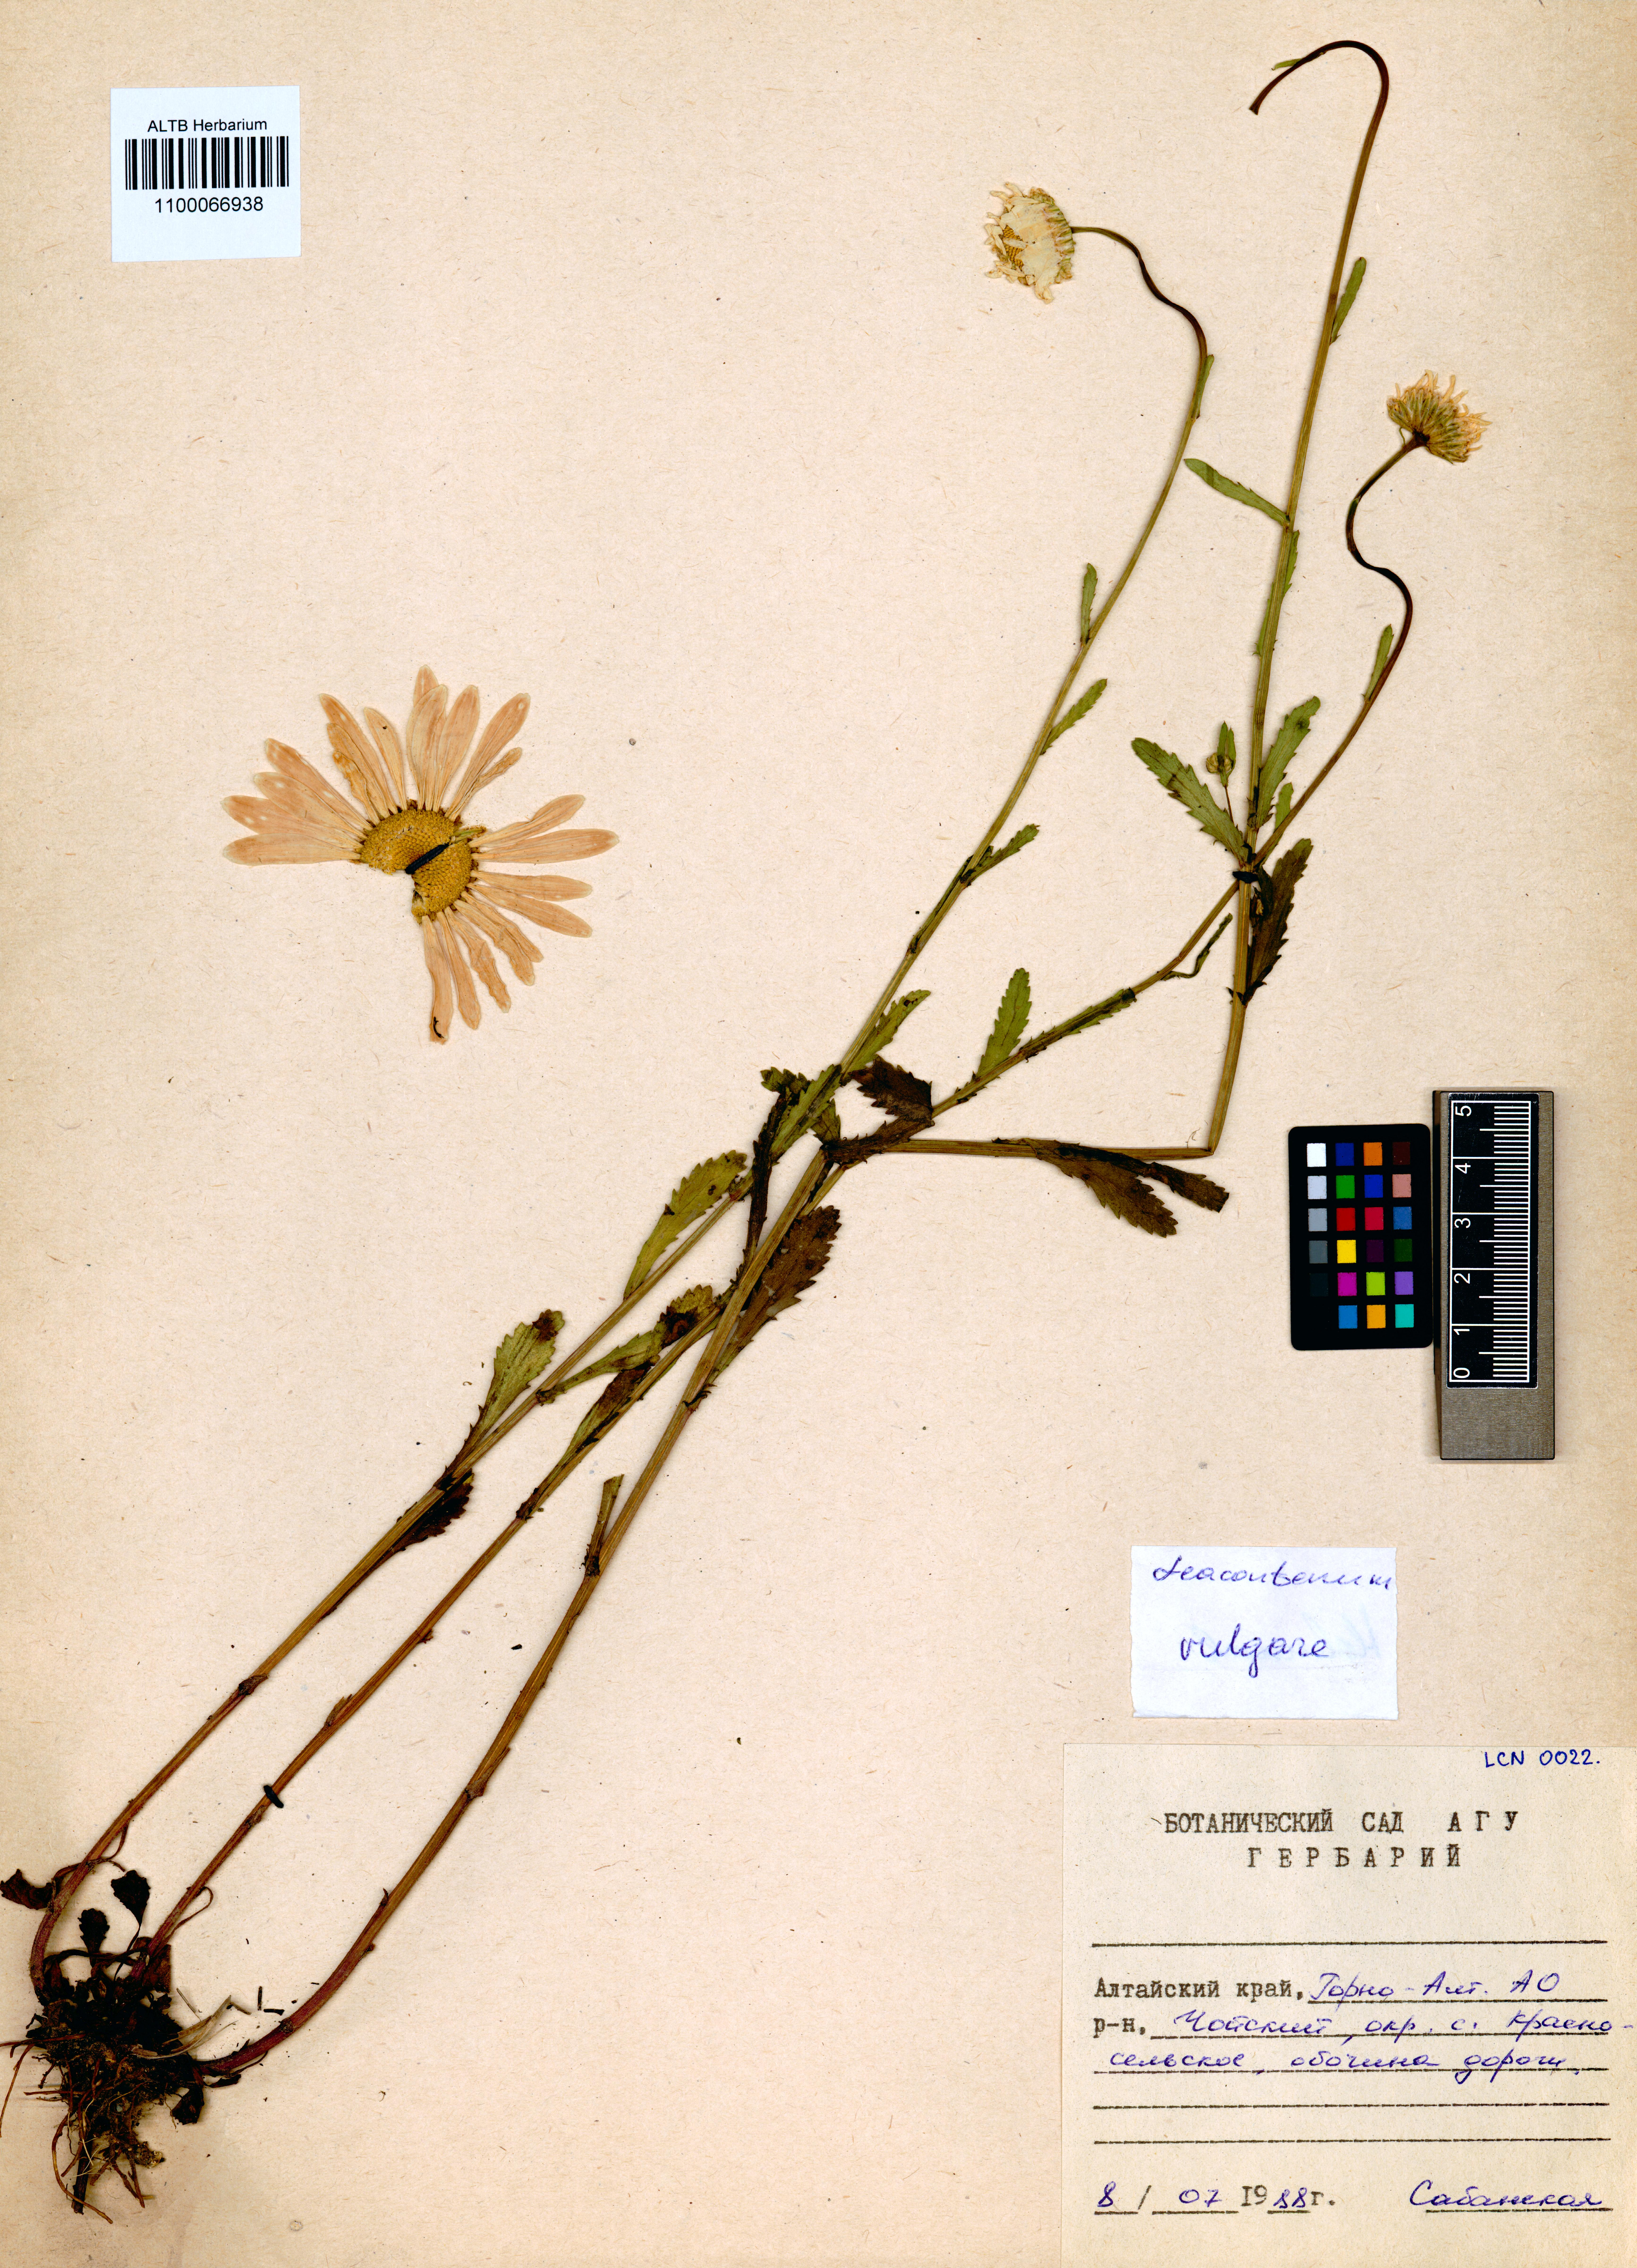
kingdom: Plantae
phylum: Tracheophyta
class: Magnoliopsida
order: Asterales
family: Asteraceae
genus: Leucanthemum
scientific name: Leucanthemum vulgare
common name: Oxeye daisy
